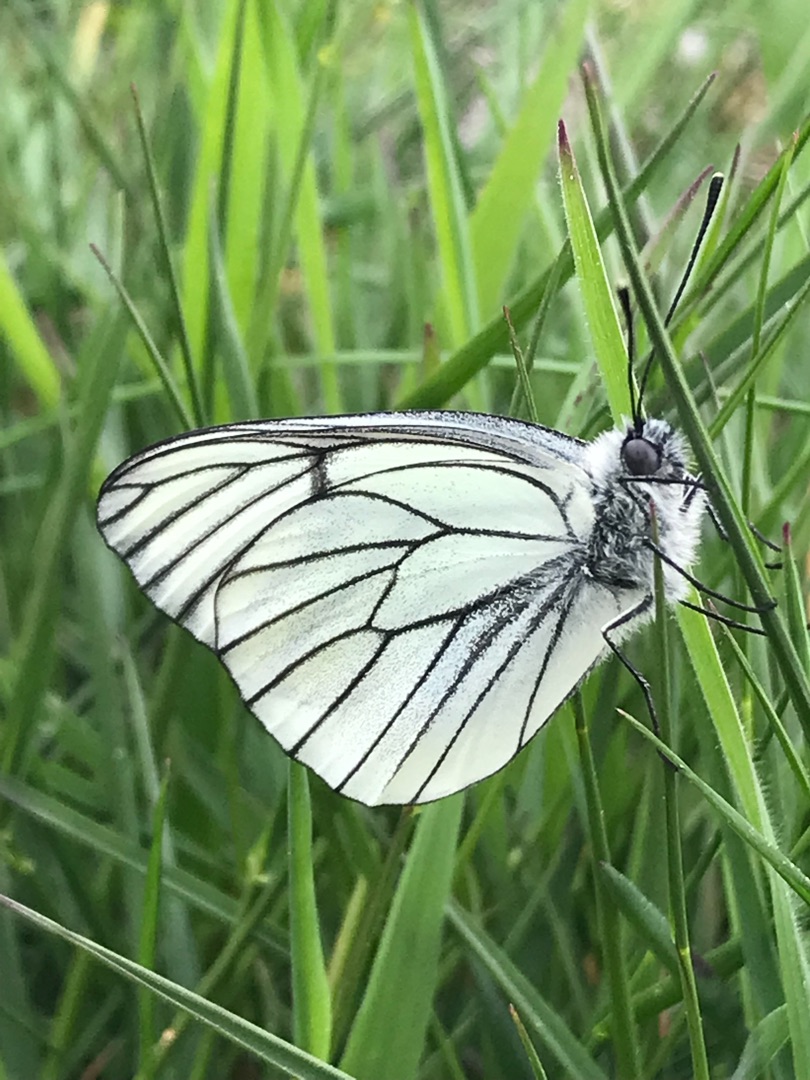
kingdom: Animalia
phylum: Arthropoda
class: Insecta
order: Lepidoptera
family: Pieridae
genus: Aporia
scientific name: Aporia crataegi
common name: Sortåret hvidvinge
